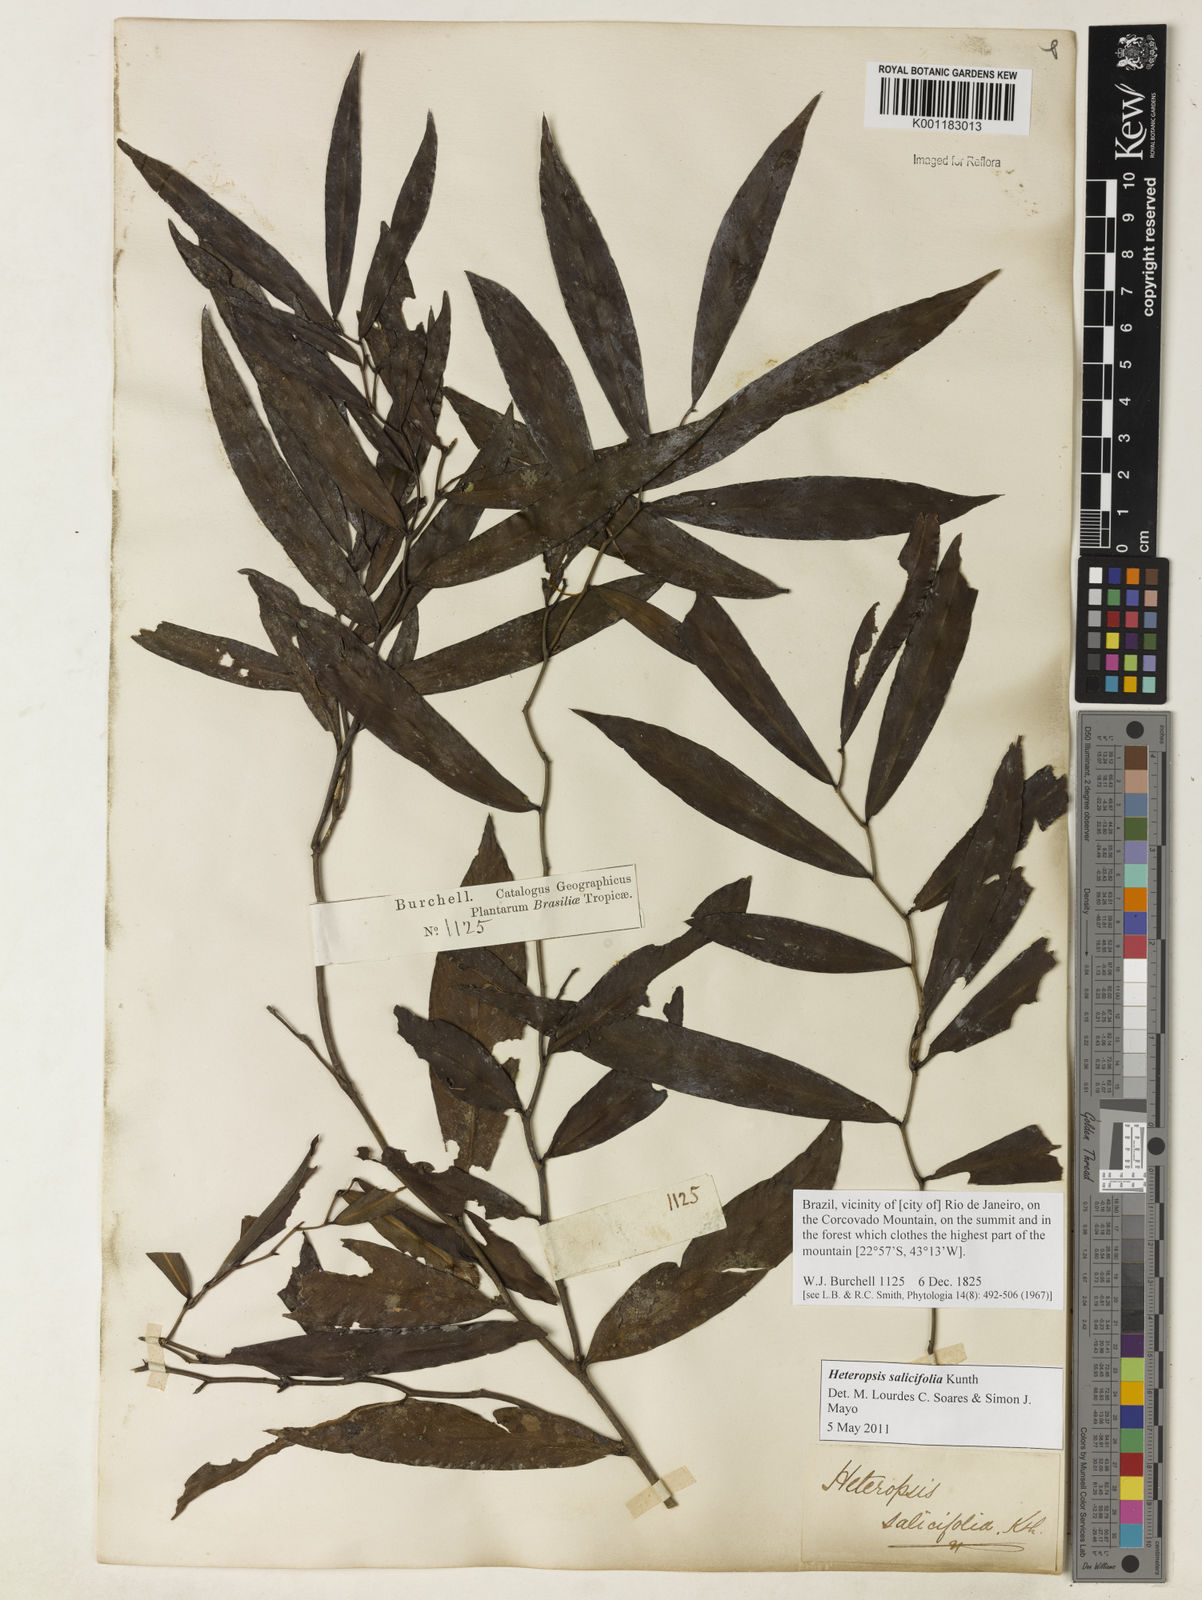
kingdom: Plantae
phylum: Tracheophyta
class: Liliopsida
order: Alismatales
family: Araceae
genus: Heteropsis
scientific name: Heteropsis salicifolia
